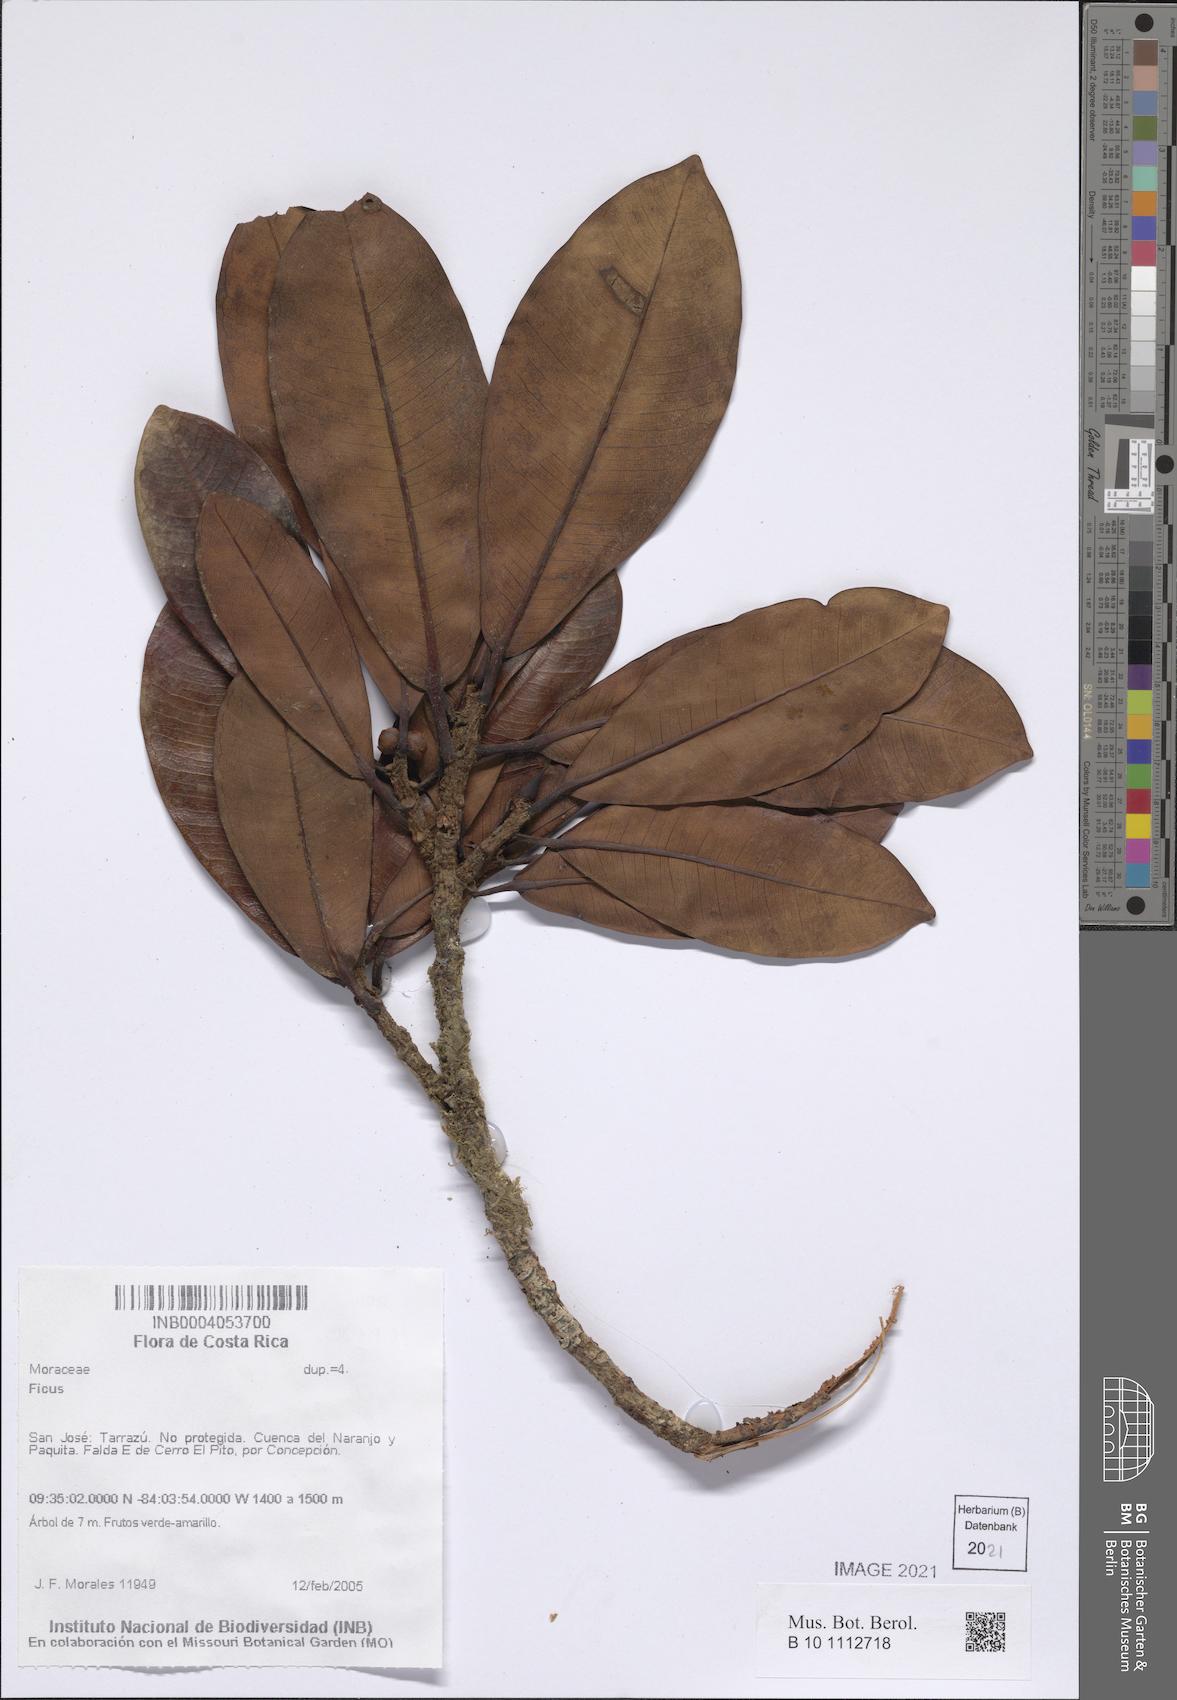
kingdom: Plantae
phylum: Tracheophyta
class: Magnoliopsida
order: Rosales
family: Moraceae
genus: Ficus
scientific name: Ficus
